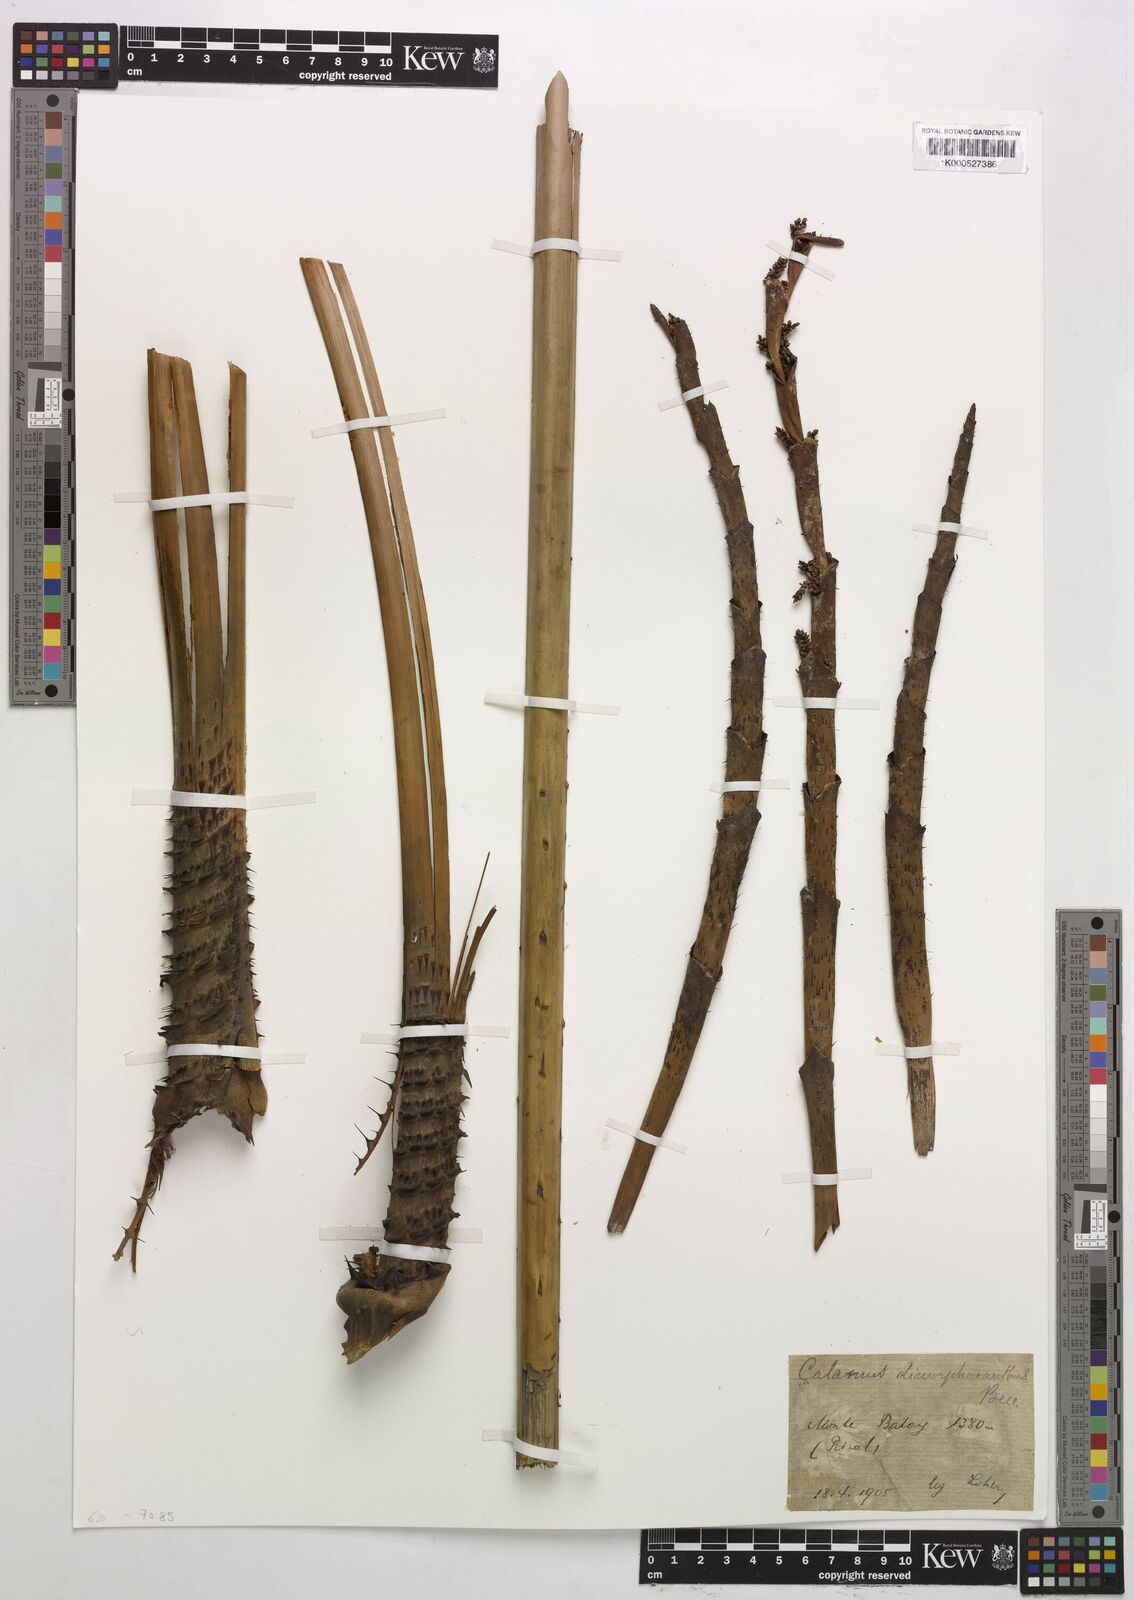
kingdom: Plantae
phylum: Tracheophyta
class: Liliopsida
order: Arecales
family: Arecaceae
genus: Calamus
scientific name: Calamus siphonospathus
